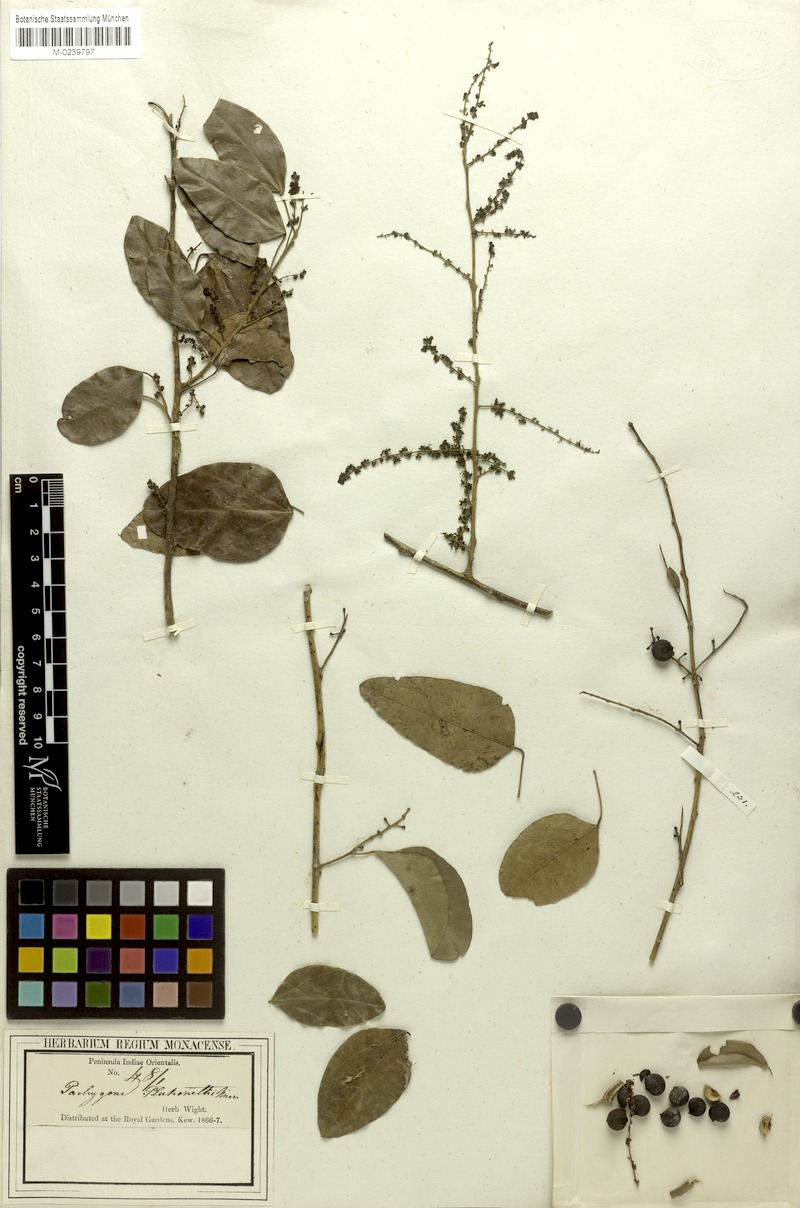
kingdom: Plantae
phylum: Tracheophyta
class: Magnoliopsida
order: Ranunculales
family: Menispermaceae
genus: Pachygone
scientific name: Pachygone ovata
